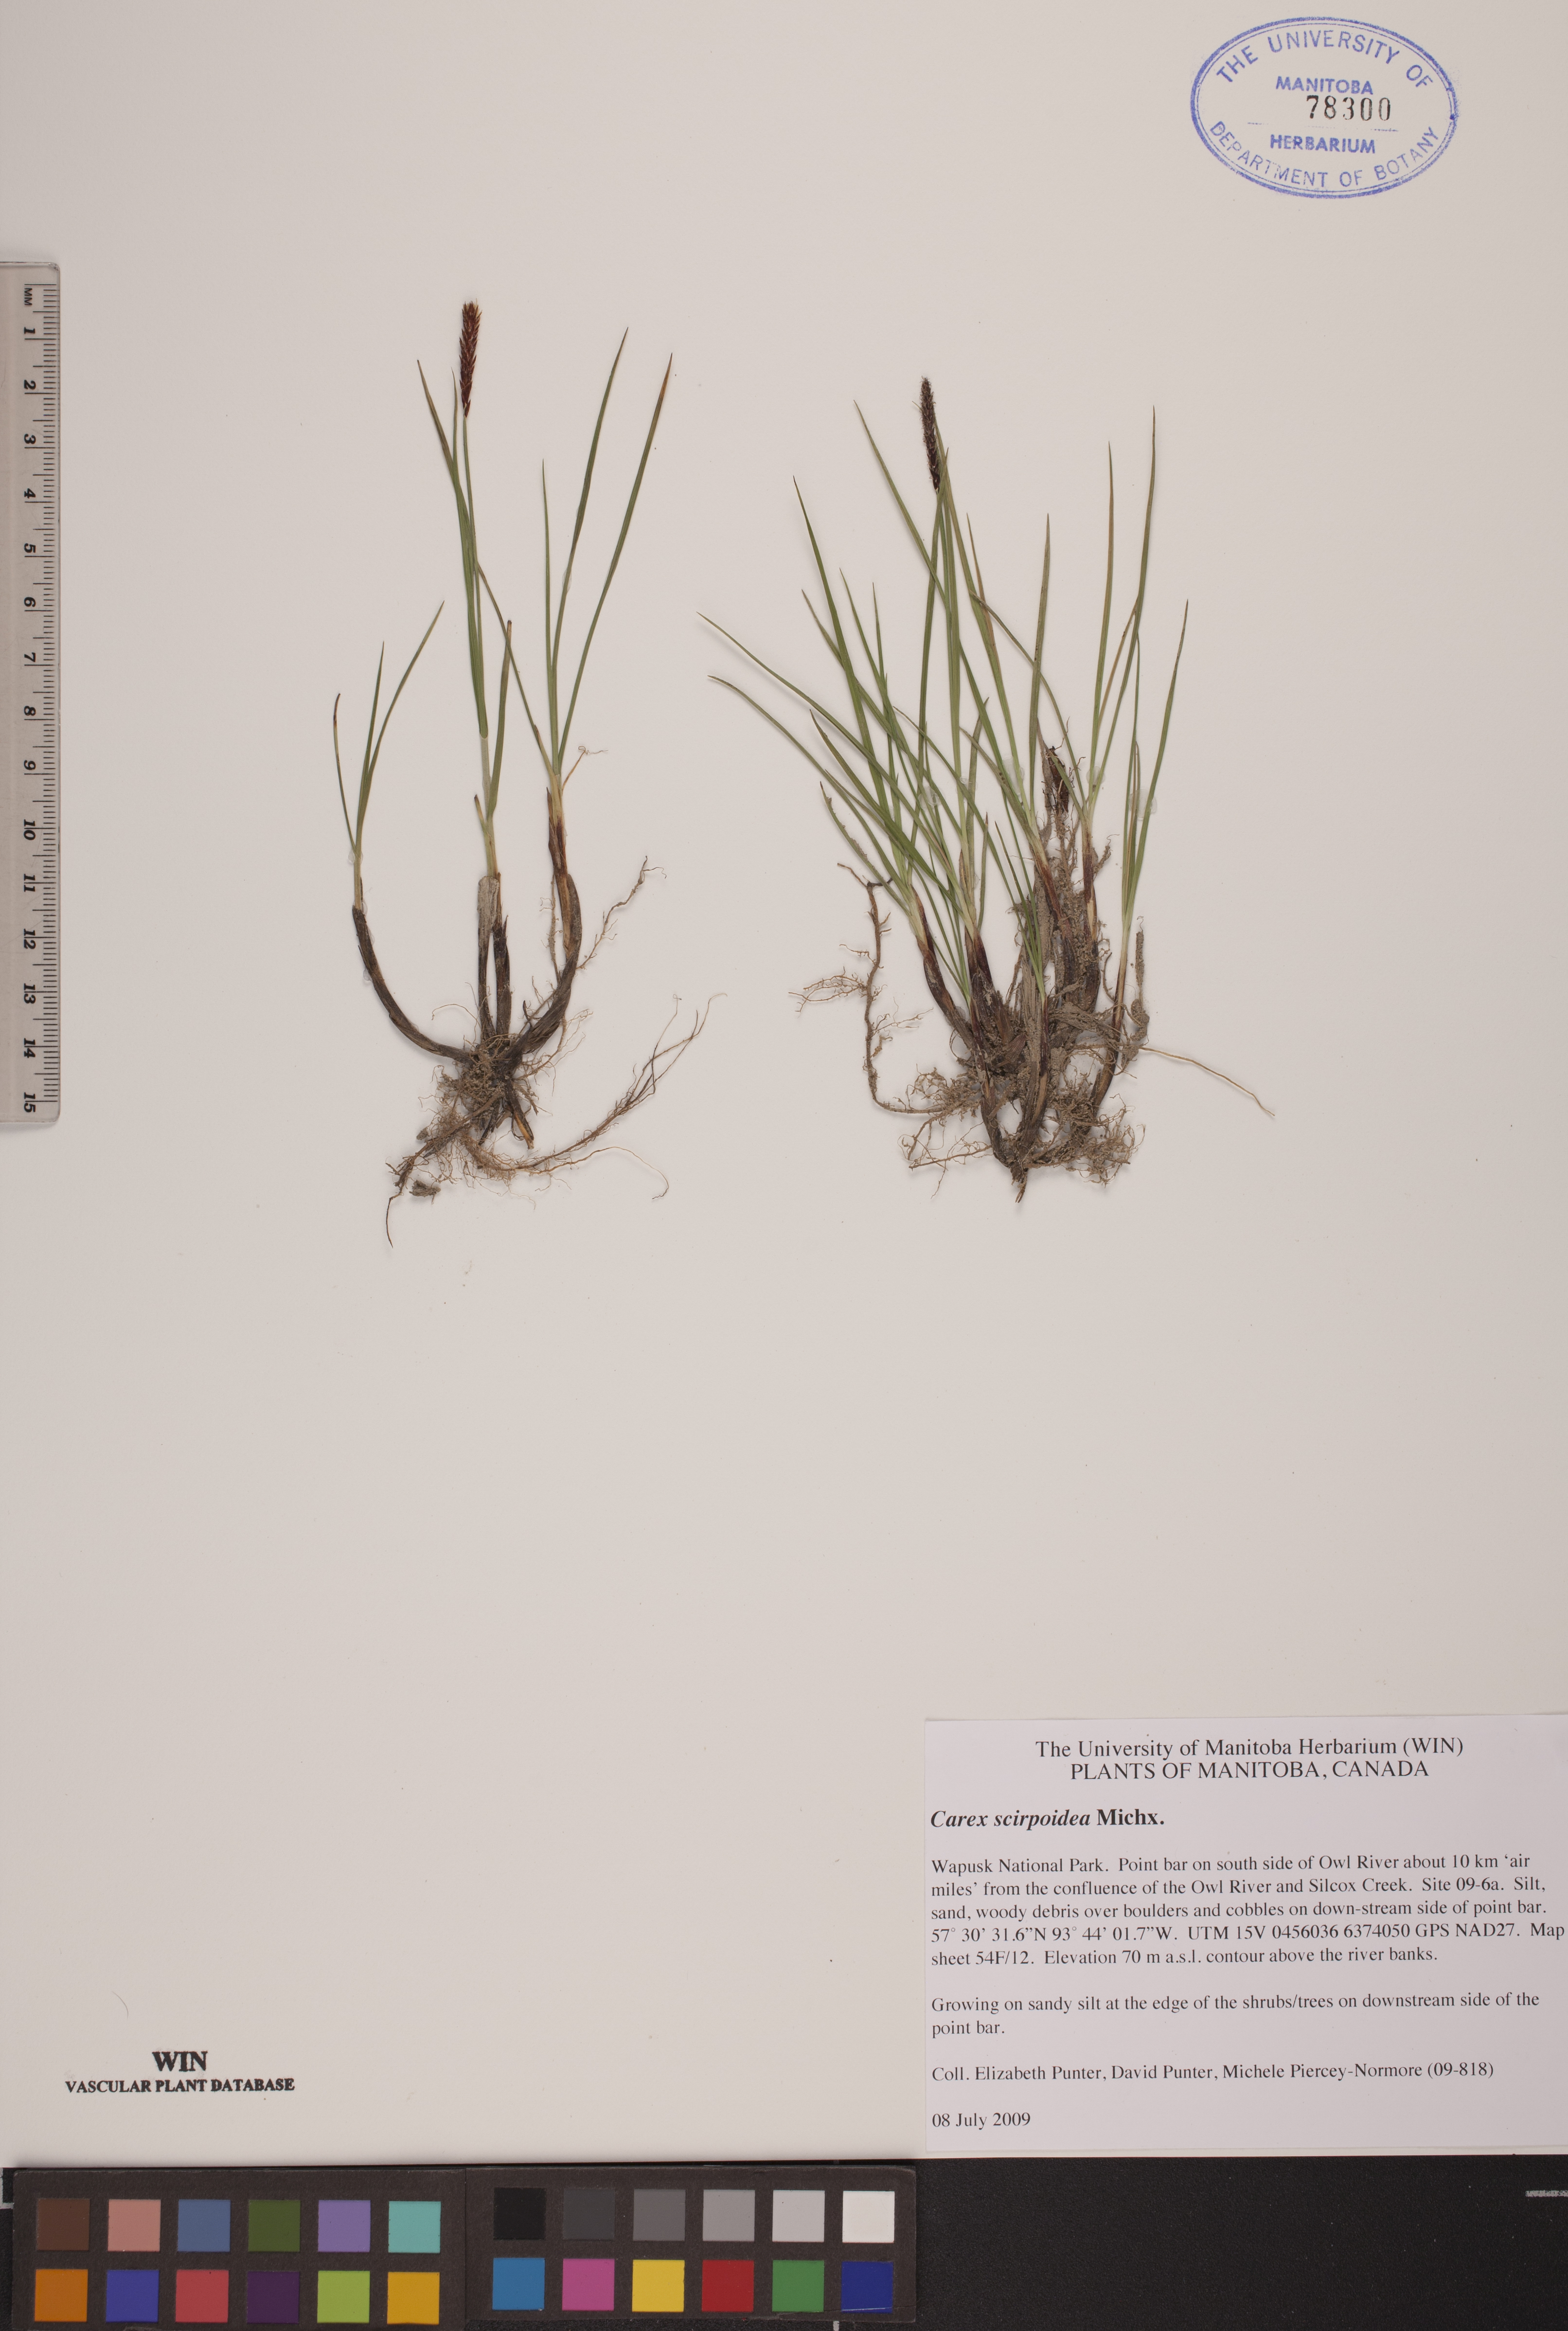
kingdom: Plantae
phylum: Tracheophyta
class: Liliopsida
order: Poales
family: Cyperaceae
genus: Carex
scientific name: Carex scirpoidea
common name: Canada single-spike sedge
